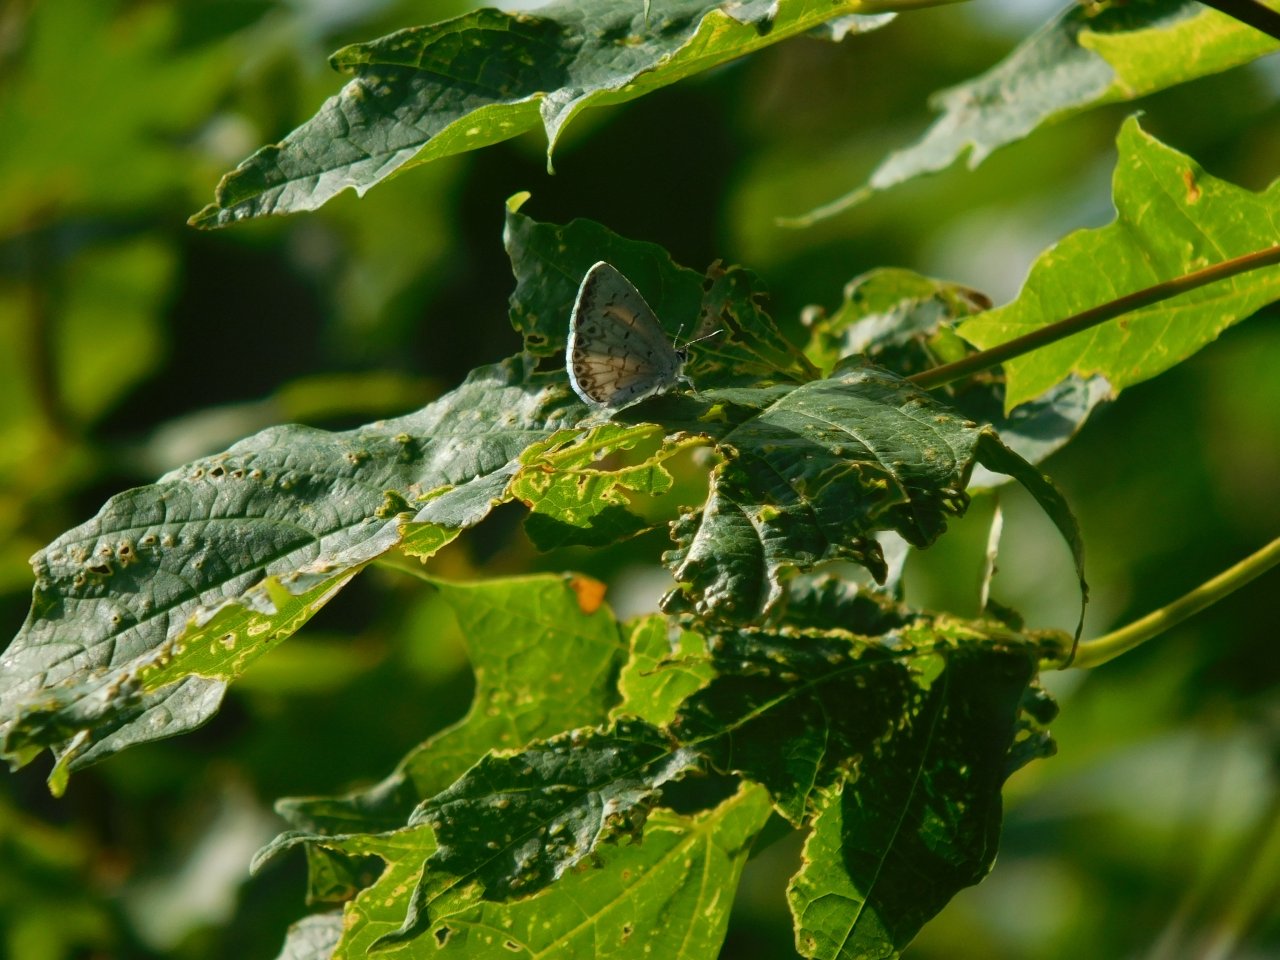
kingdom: Animalia
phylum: Arthropoda
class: Insecta
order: Lepidoptera
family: Lycaenidae
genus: Celastrina
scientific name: Celastrina lucia
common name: Northern Spring Azure
